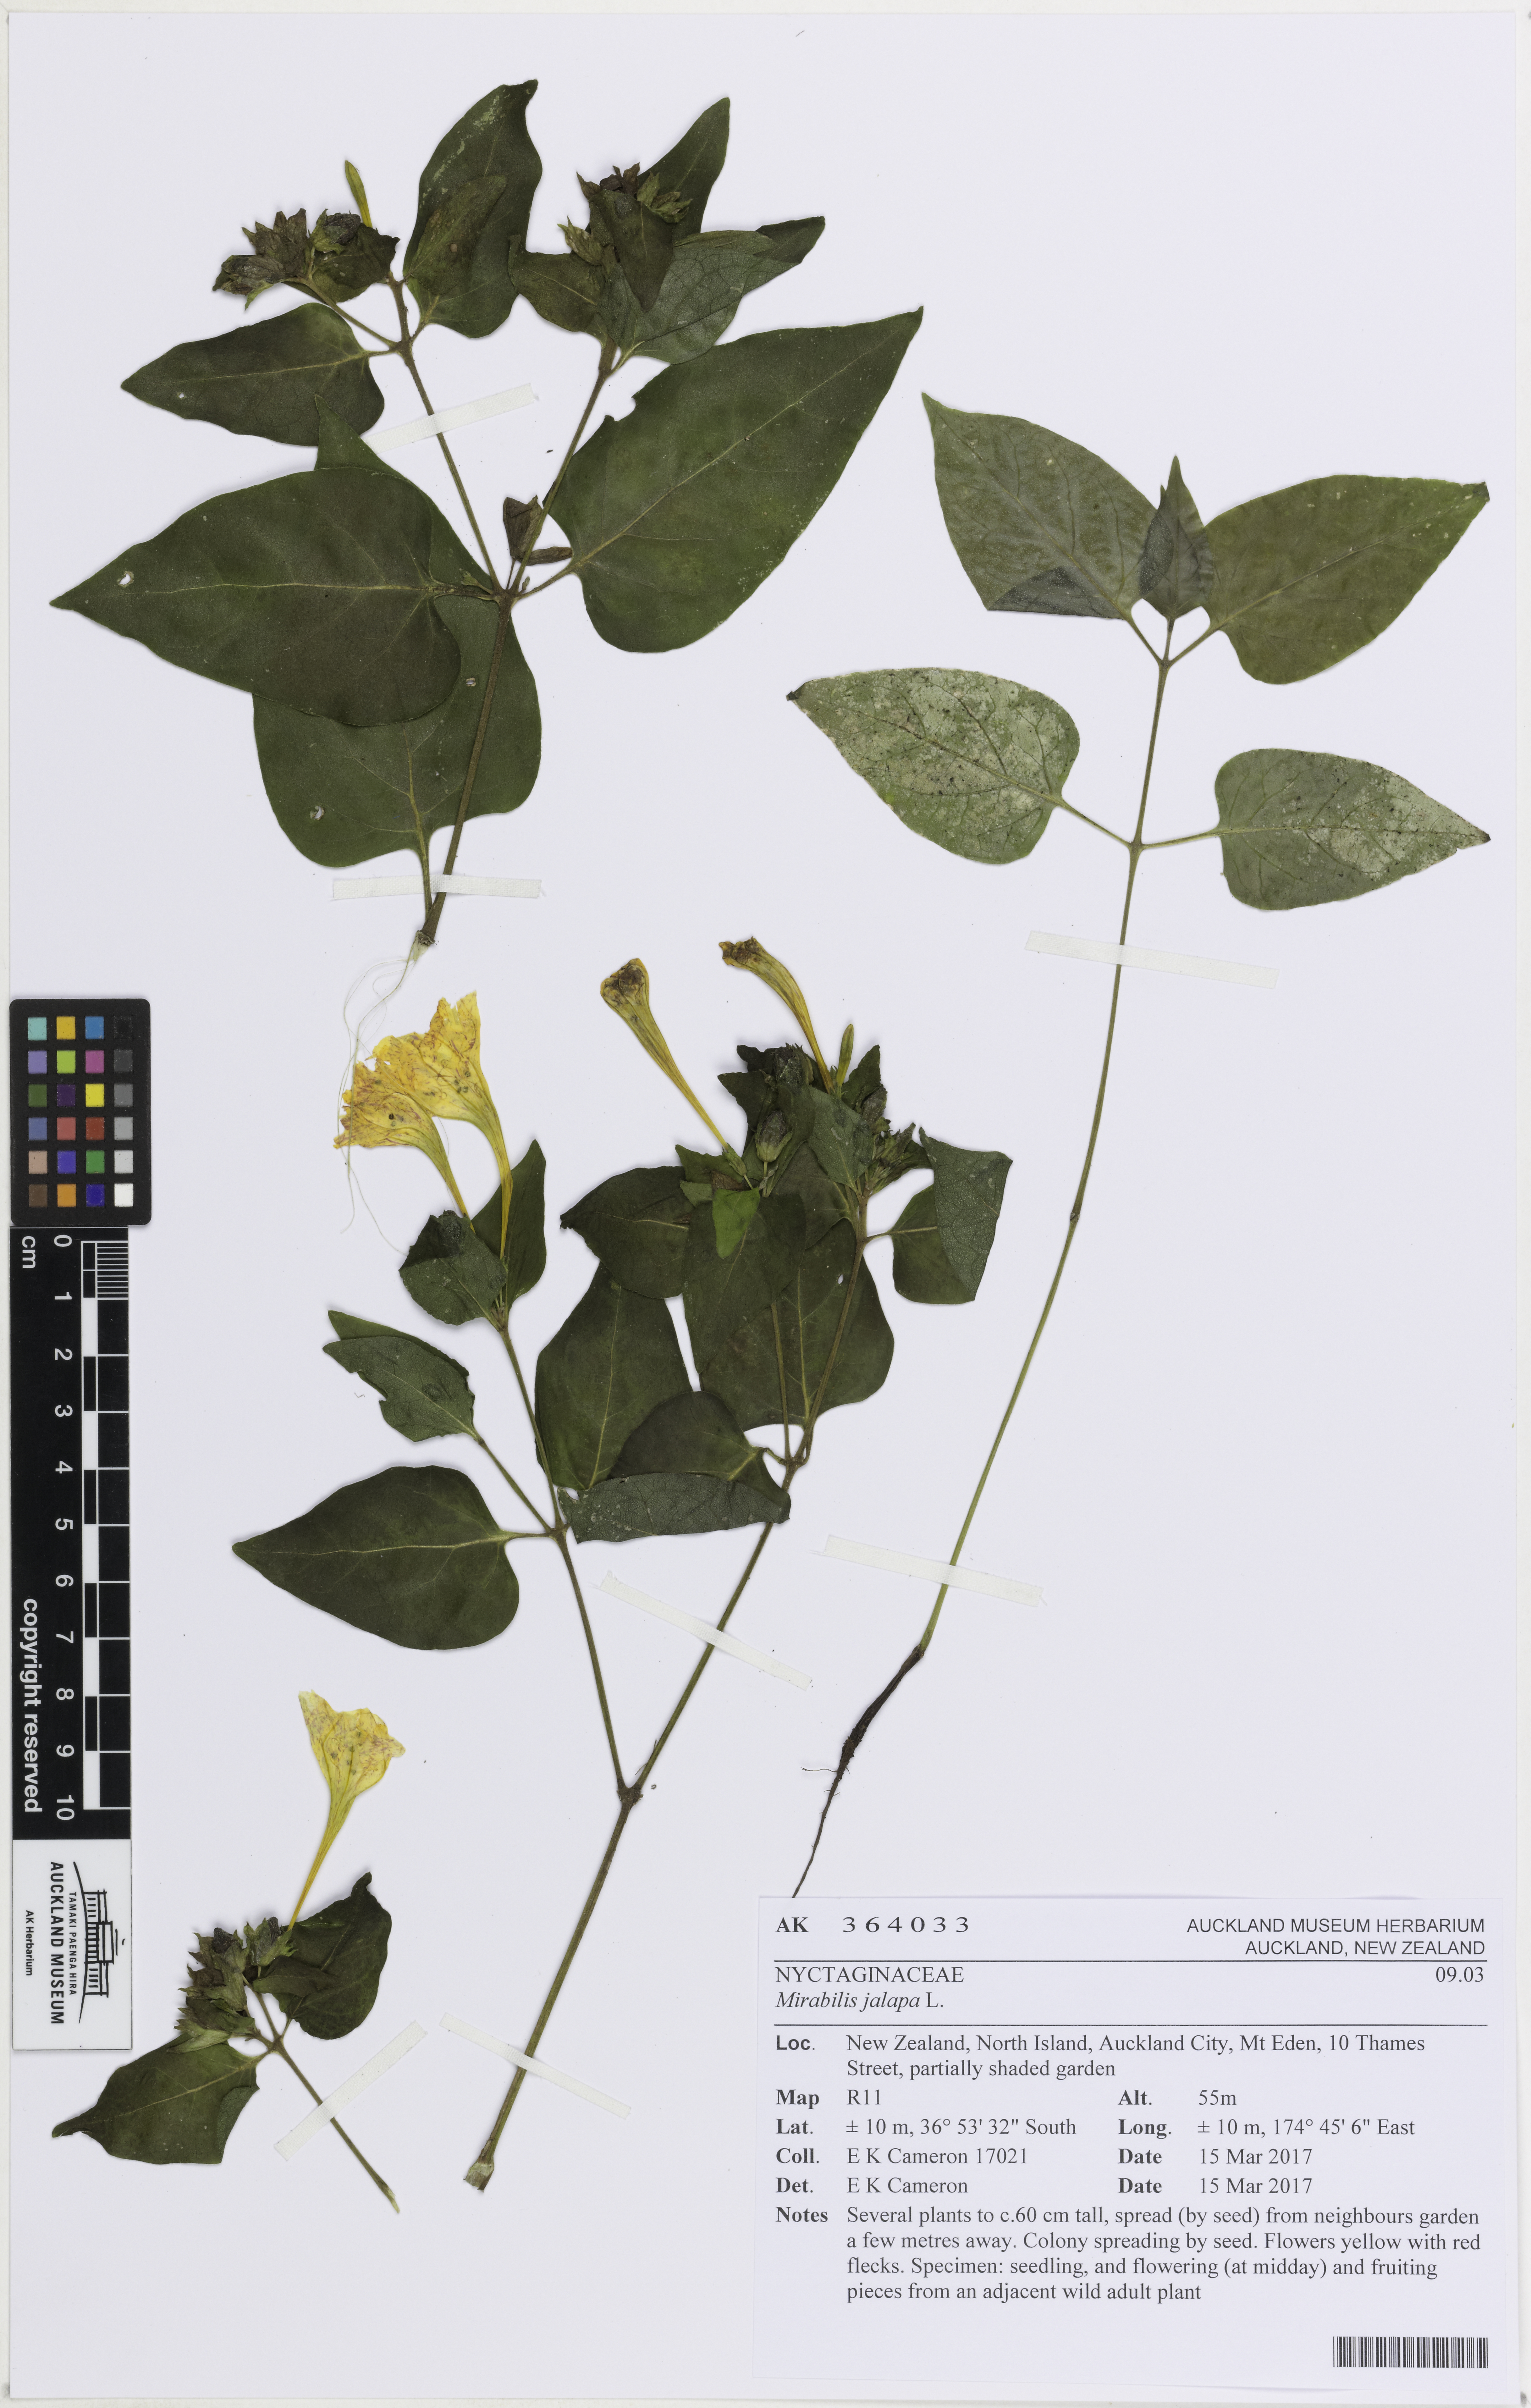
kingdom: Plantae
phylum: Tracheophyta
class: Magnoliopsida
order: Caryophyllales
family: Nyctaginaceae
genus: Mirabilis
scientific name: Mirabilis jalapa
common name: Marvel-of-peru
